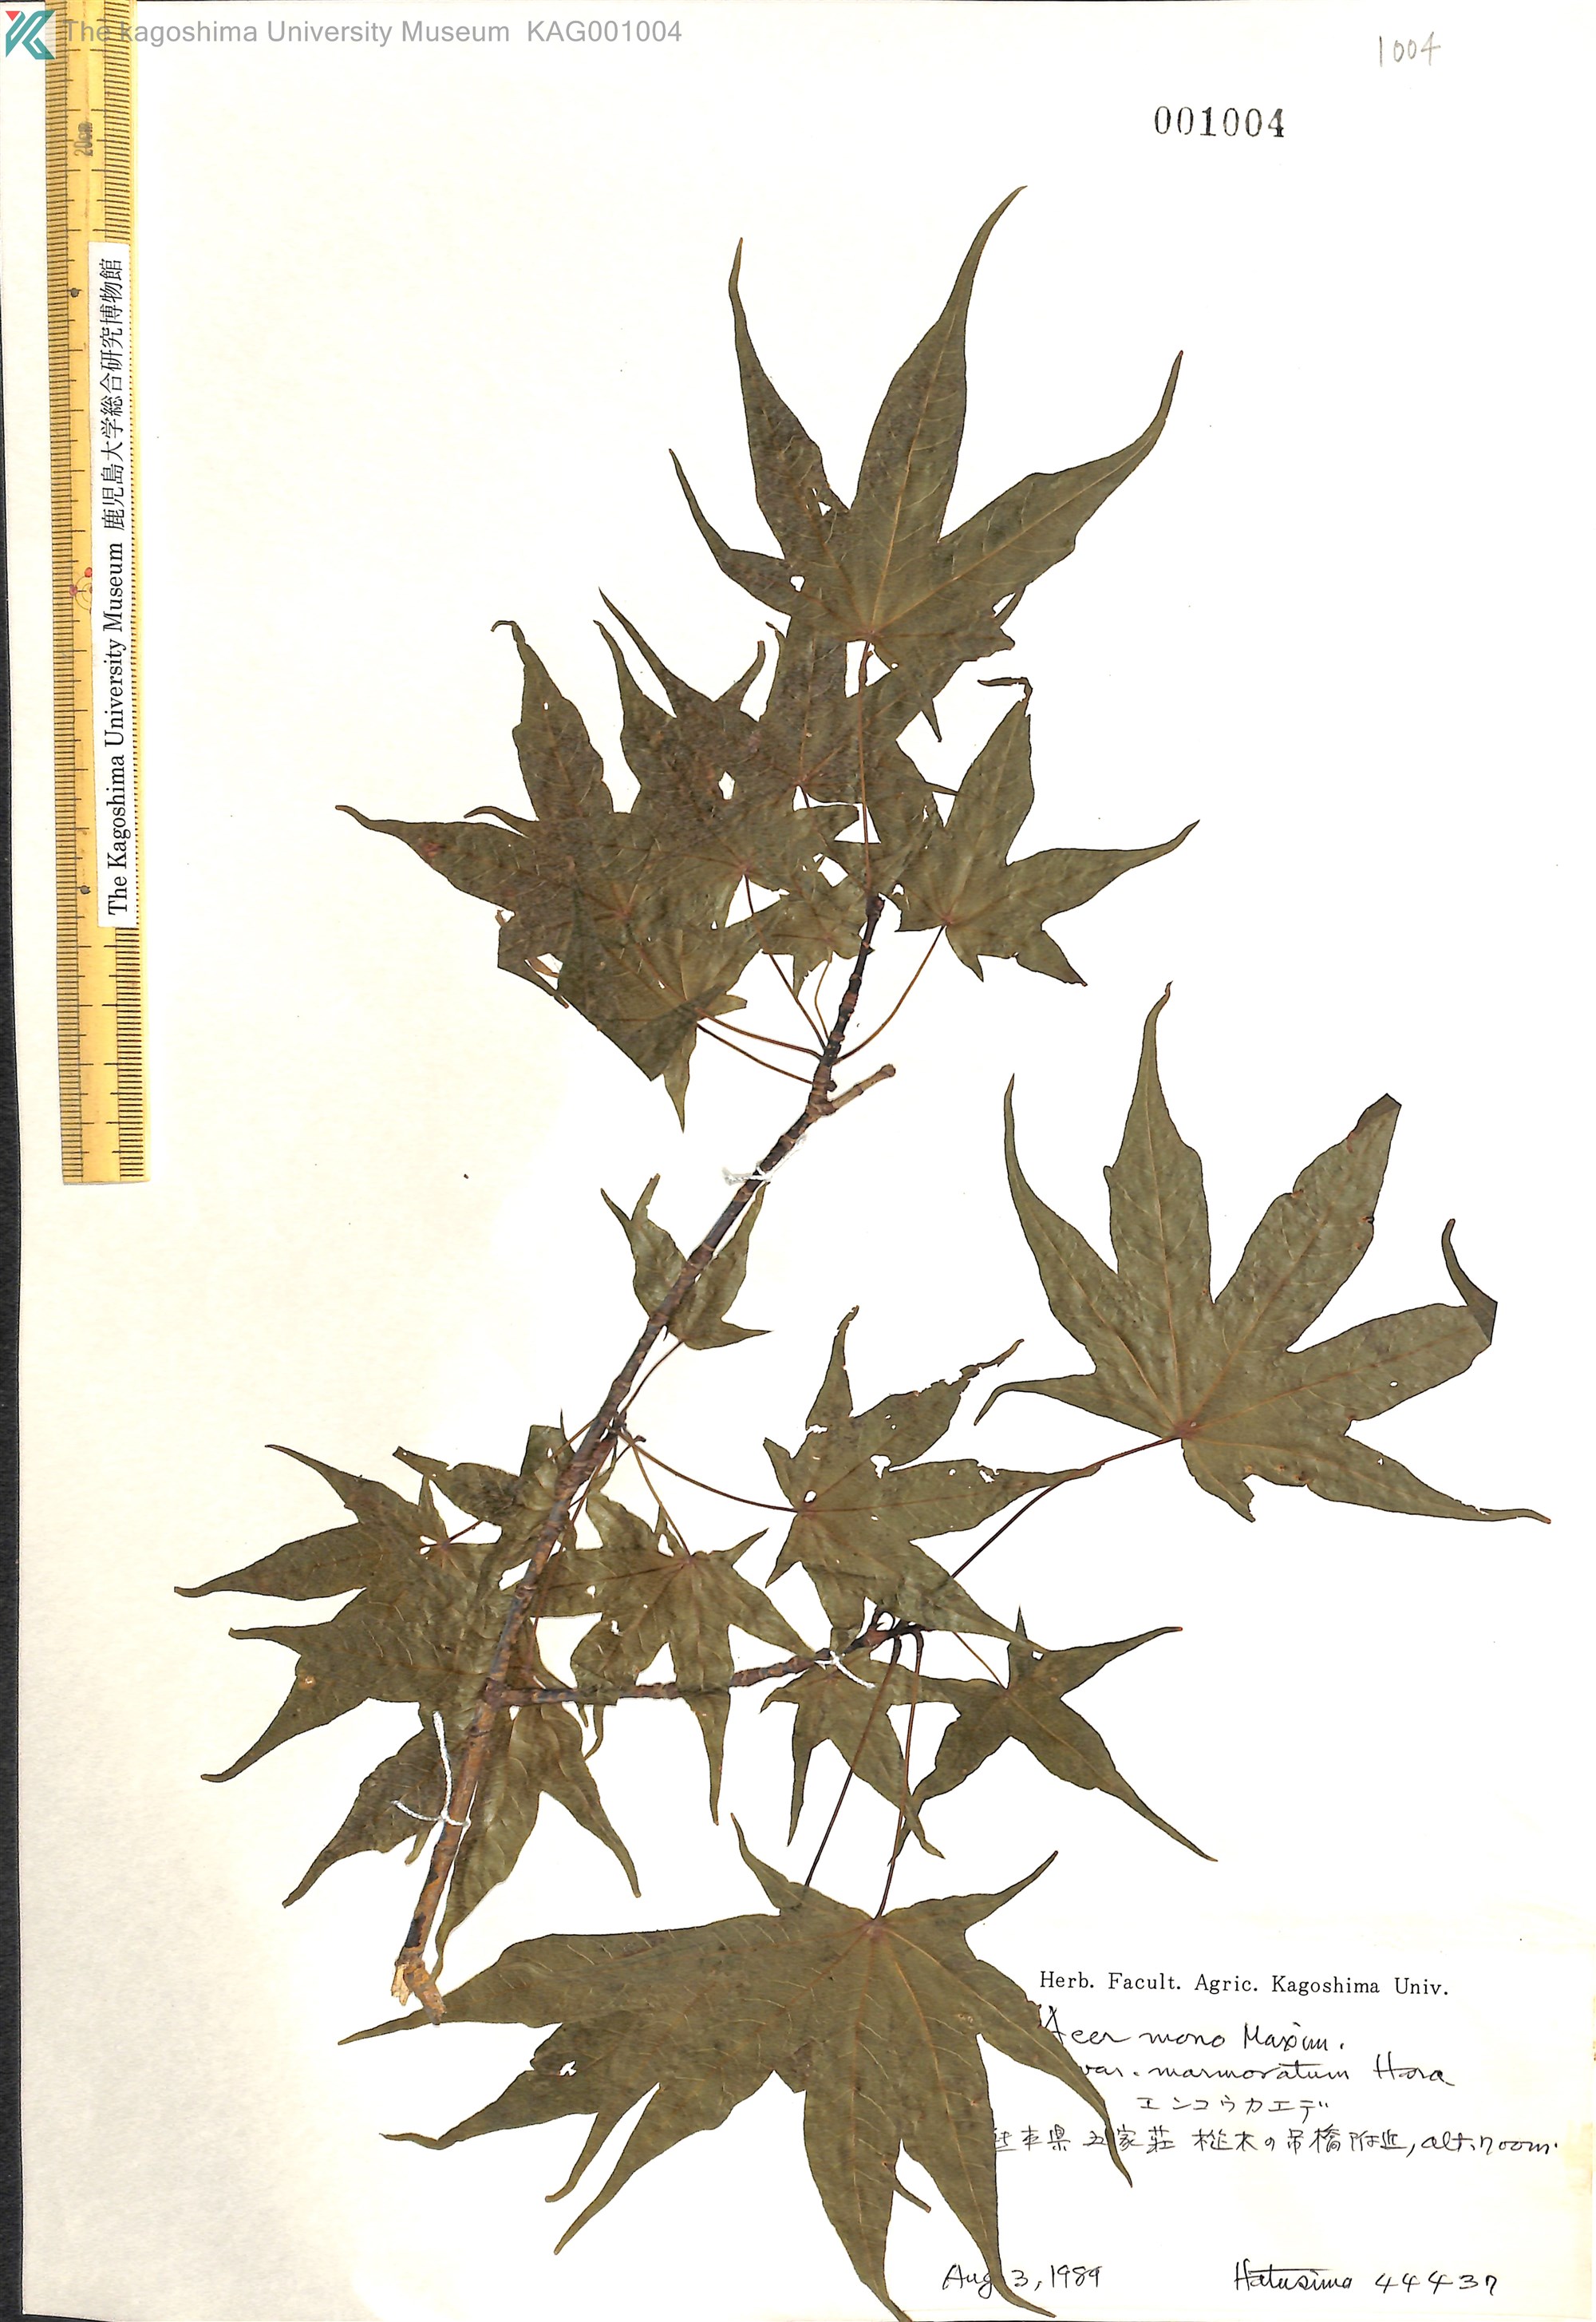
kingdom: Plantae
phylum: Tracheophyta
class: Magnoliopsida
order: Sapindales
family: Sapindaceae
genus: Acer
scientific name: Acer pictum
